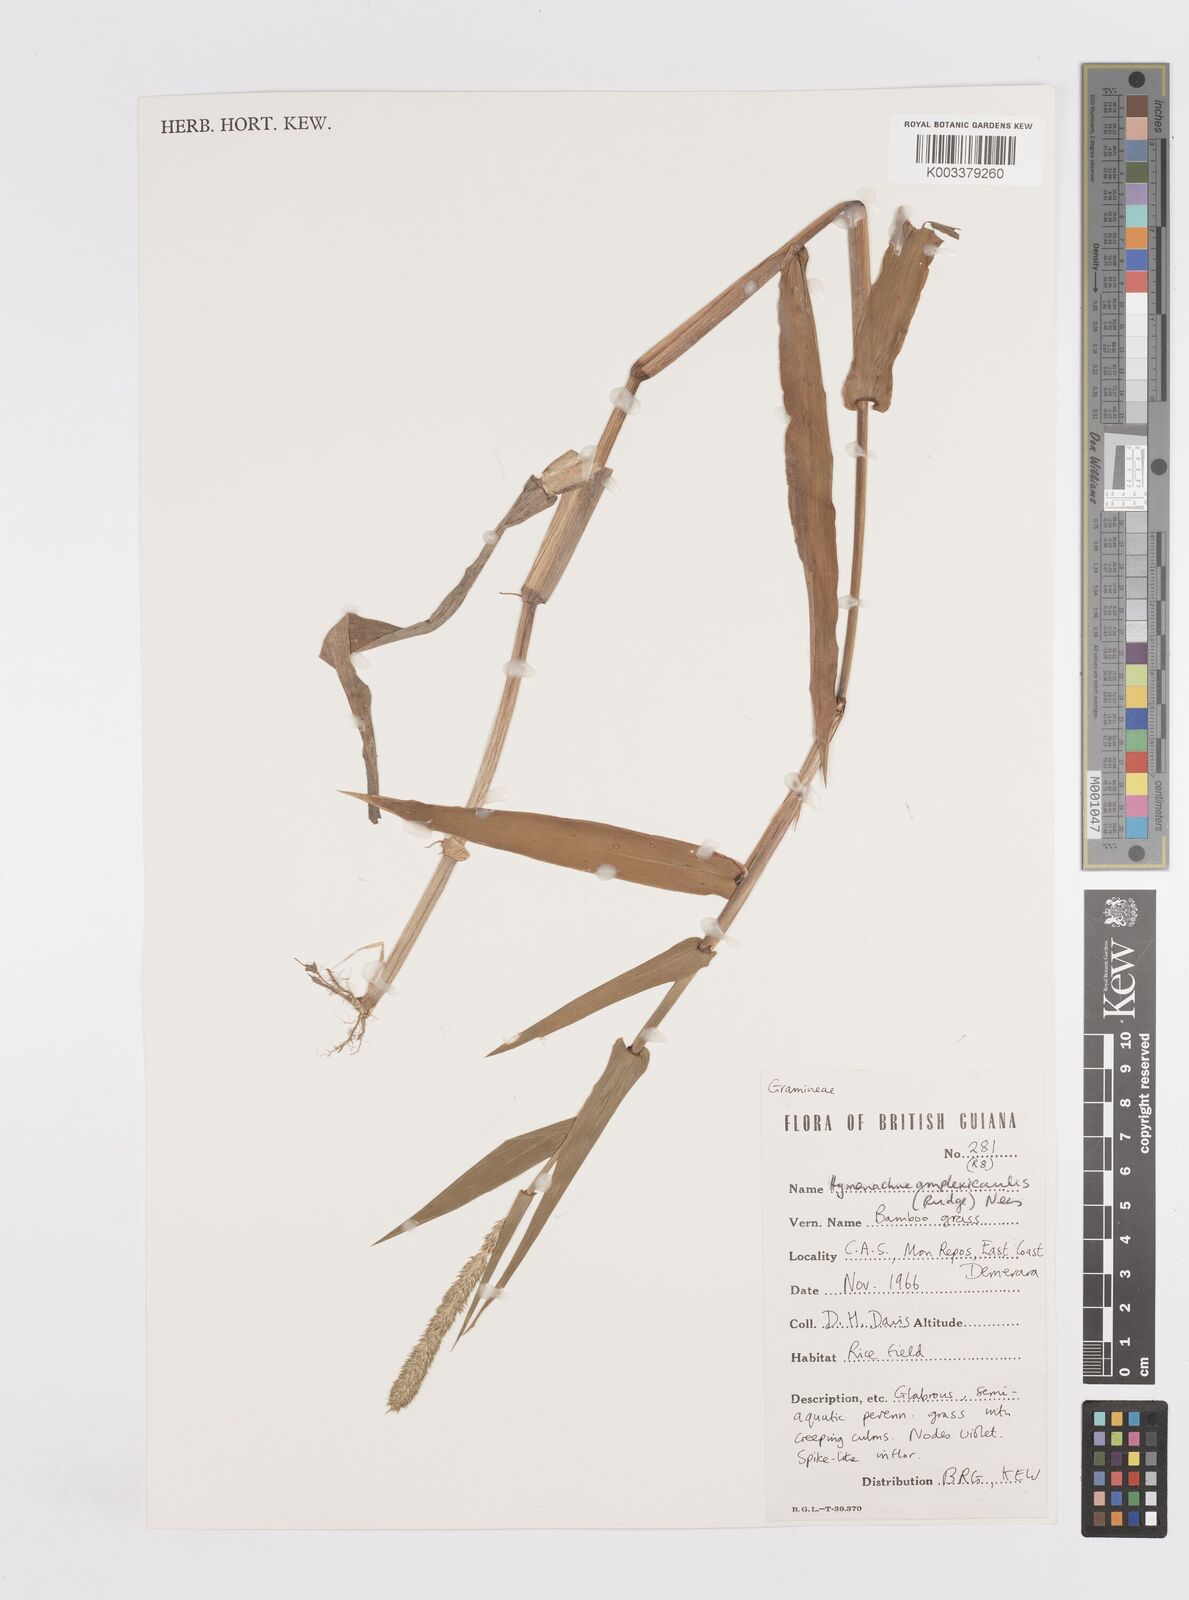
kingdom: Plantae
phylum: Tracheophyta
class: Liliopsida
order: Poales
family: Poaceae
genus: Hymenachne
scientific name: Hymenachne amplexicaulis
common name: Olive hymenachne
